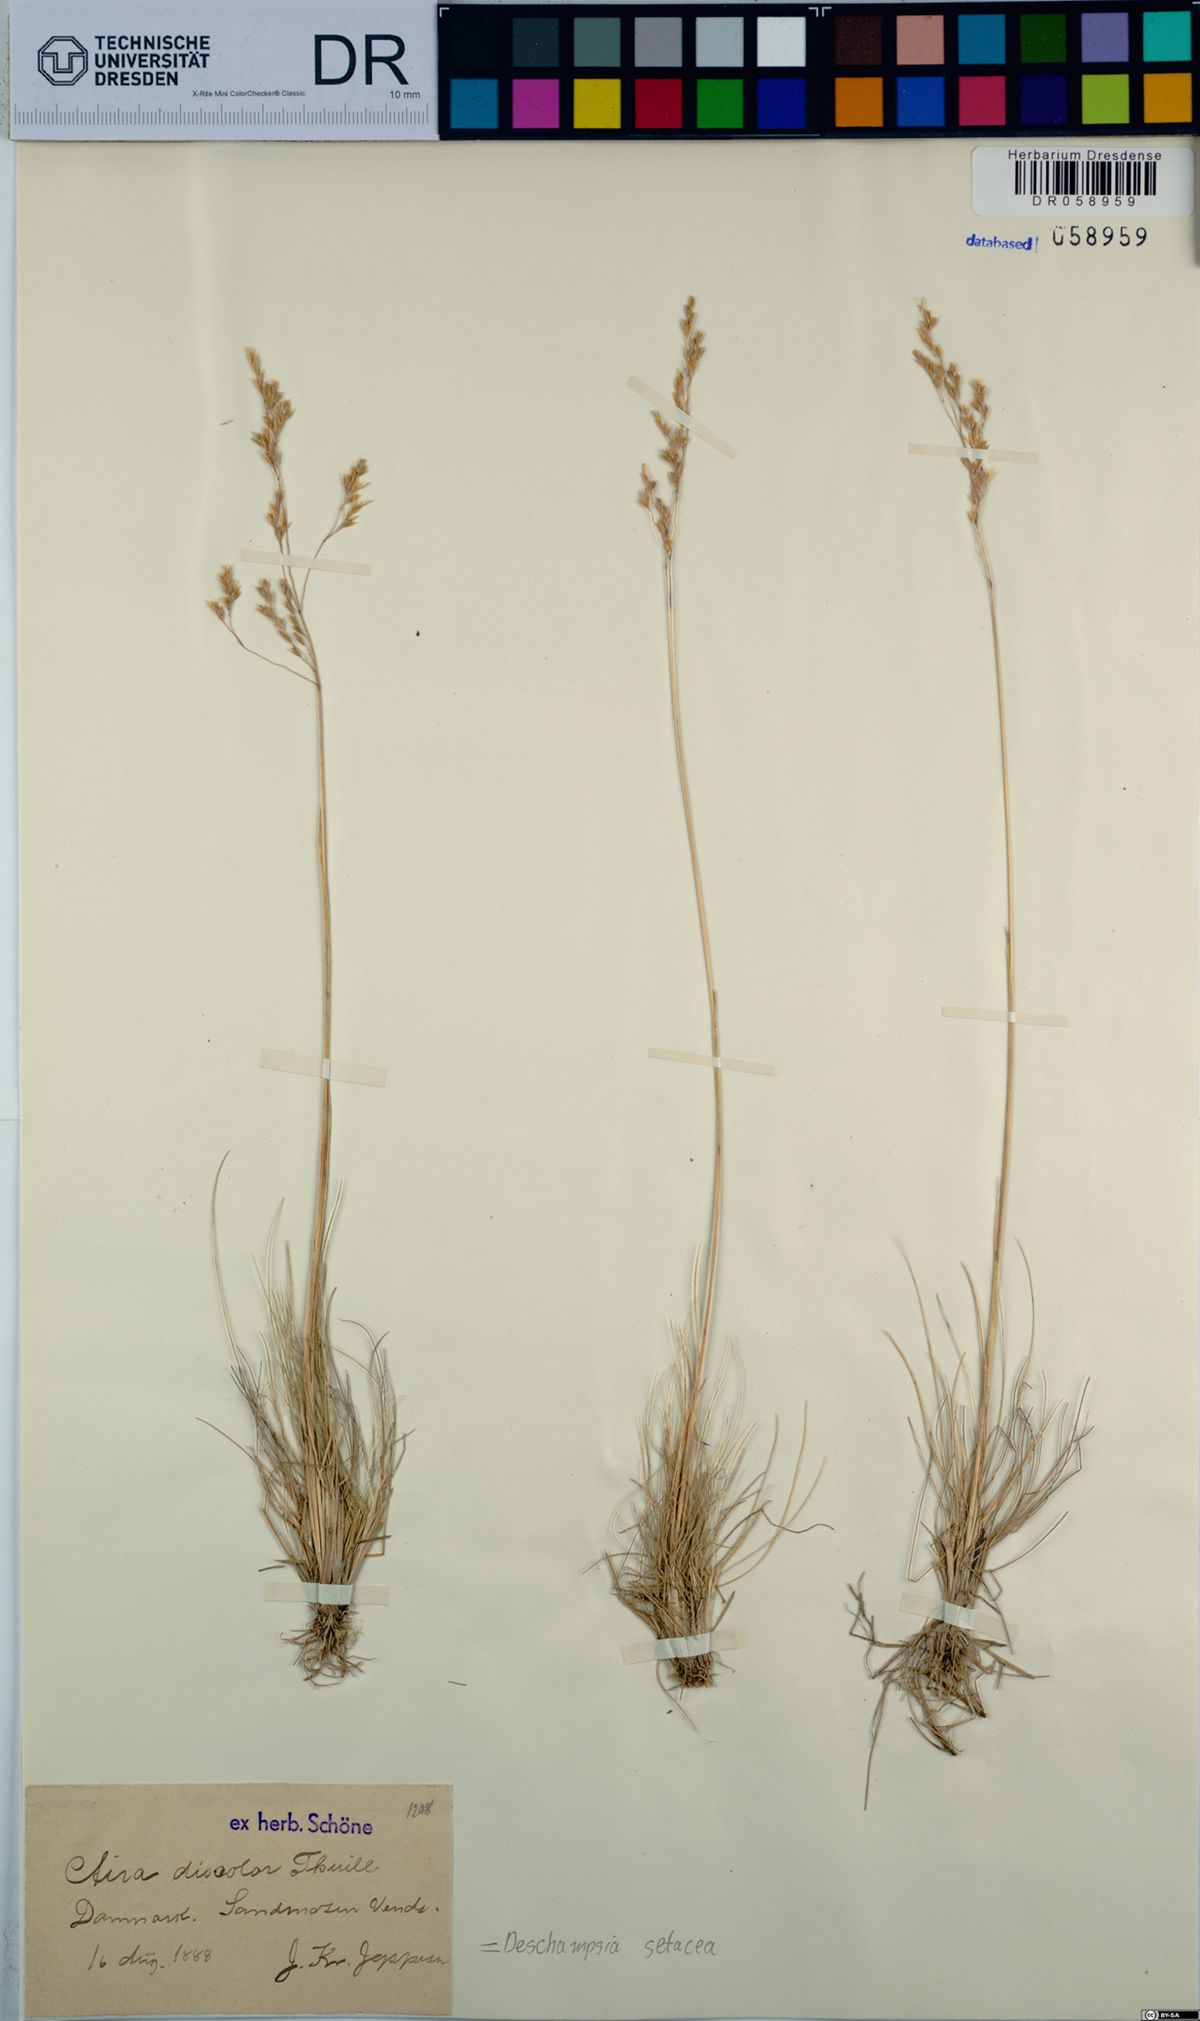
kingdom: Plantae
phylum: Tracheophyta
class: Liliopsida
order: Poales
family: Poaceae
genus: Deschampsia
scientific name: Deschampsia setacea
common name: Bog hair-grass
